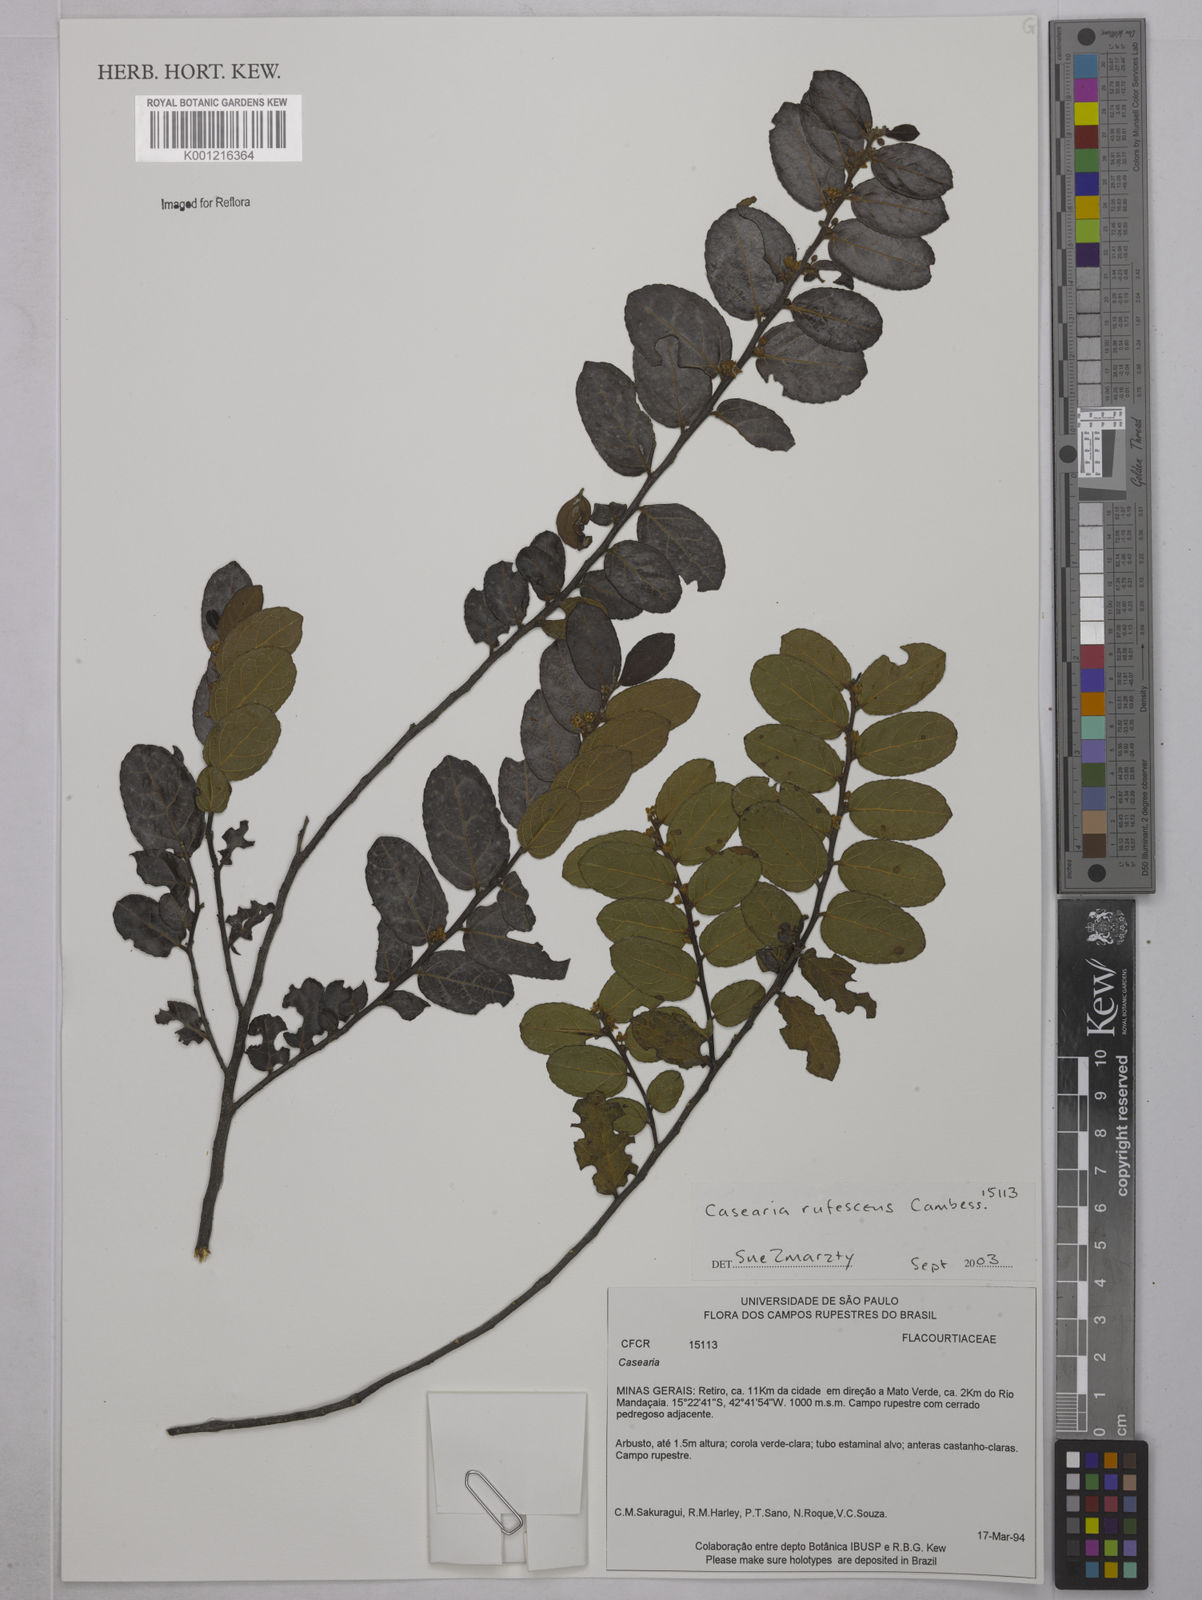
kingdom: Plantae
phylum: Tracheophyta
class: Magnoliopsida
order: Malpighiales
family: Salicaceae
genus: Casearia
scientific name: Casearia rufescens
